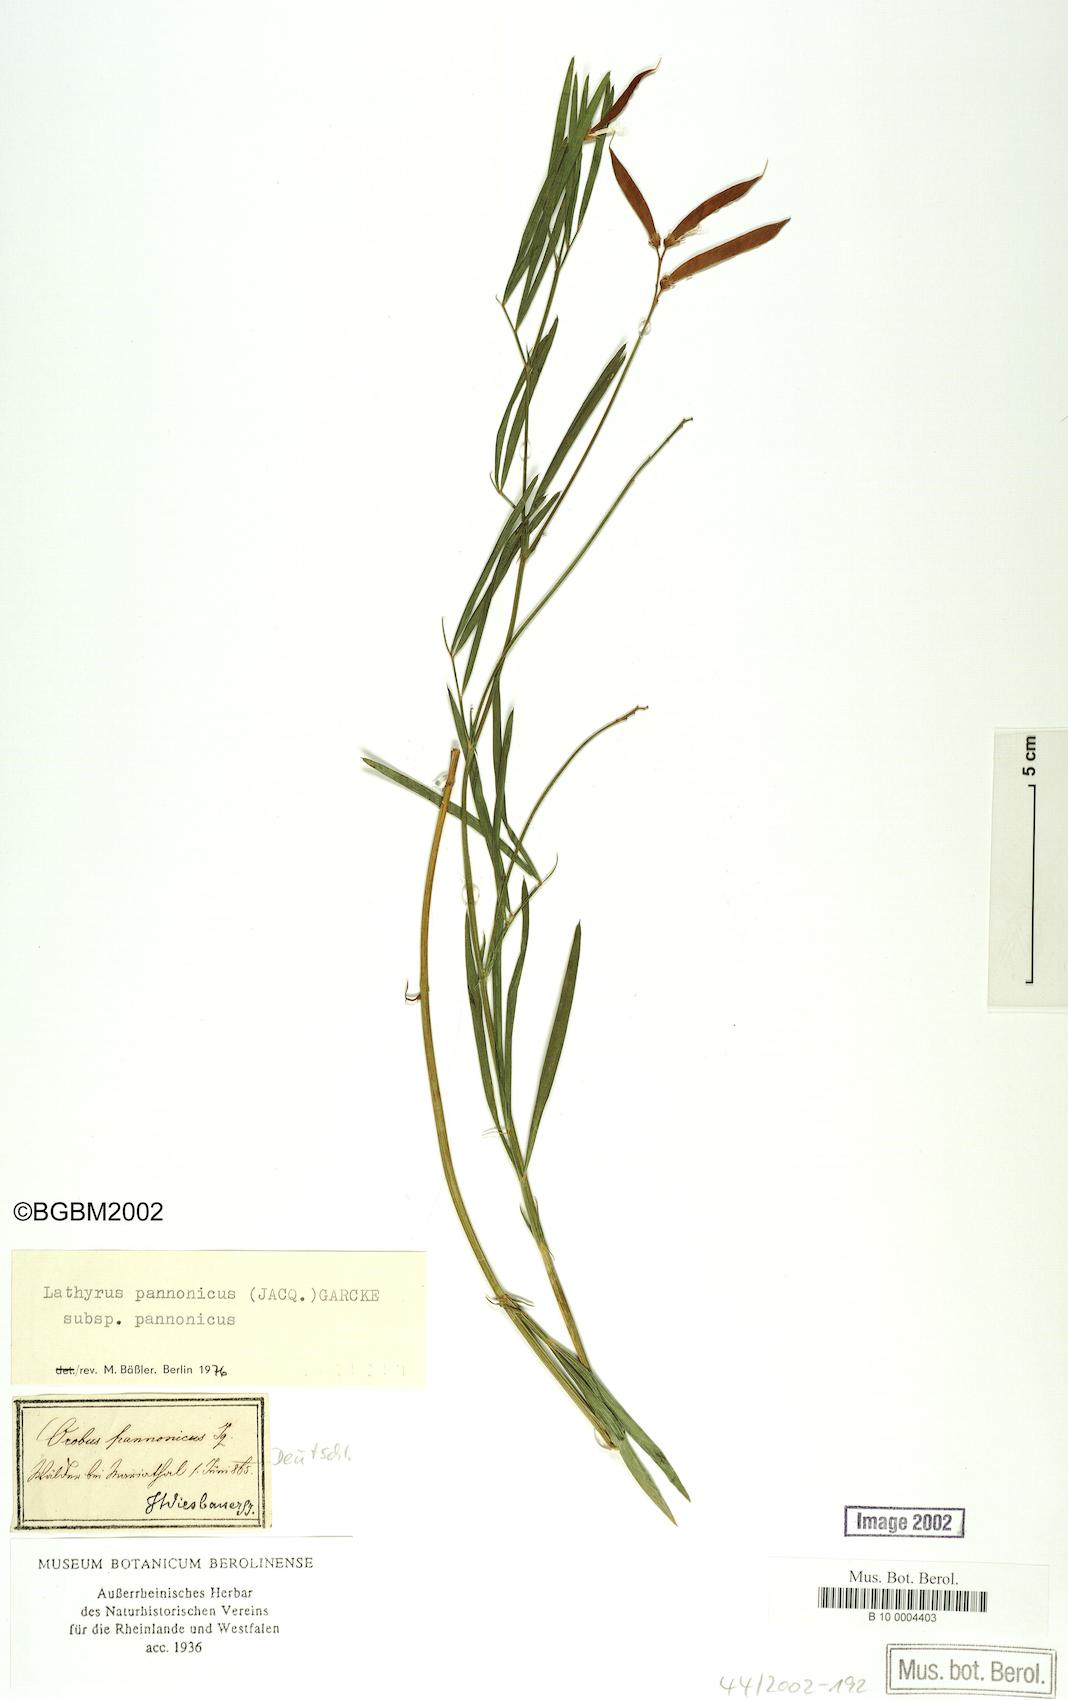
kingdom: Plantae
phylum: Tracheophyta
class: Magnoliopsida
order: Fabales
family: Fabaceae
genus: Lathyrus
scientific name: Lathyrus pannonicus
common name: Pea
